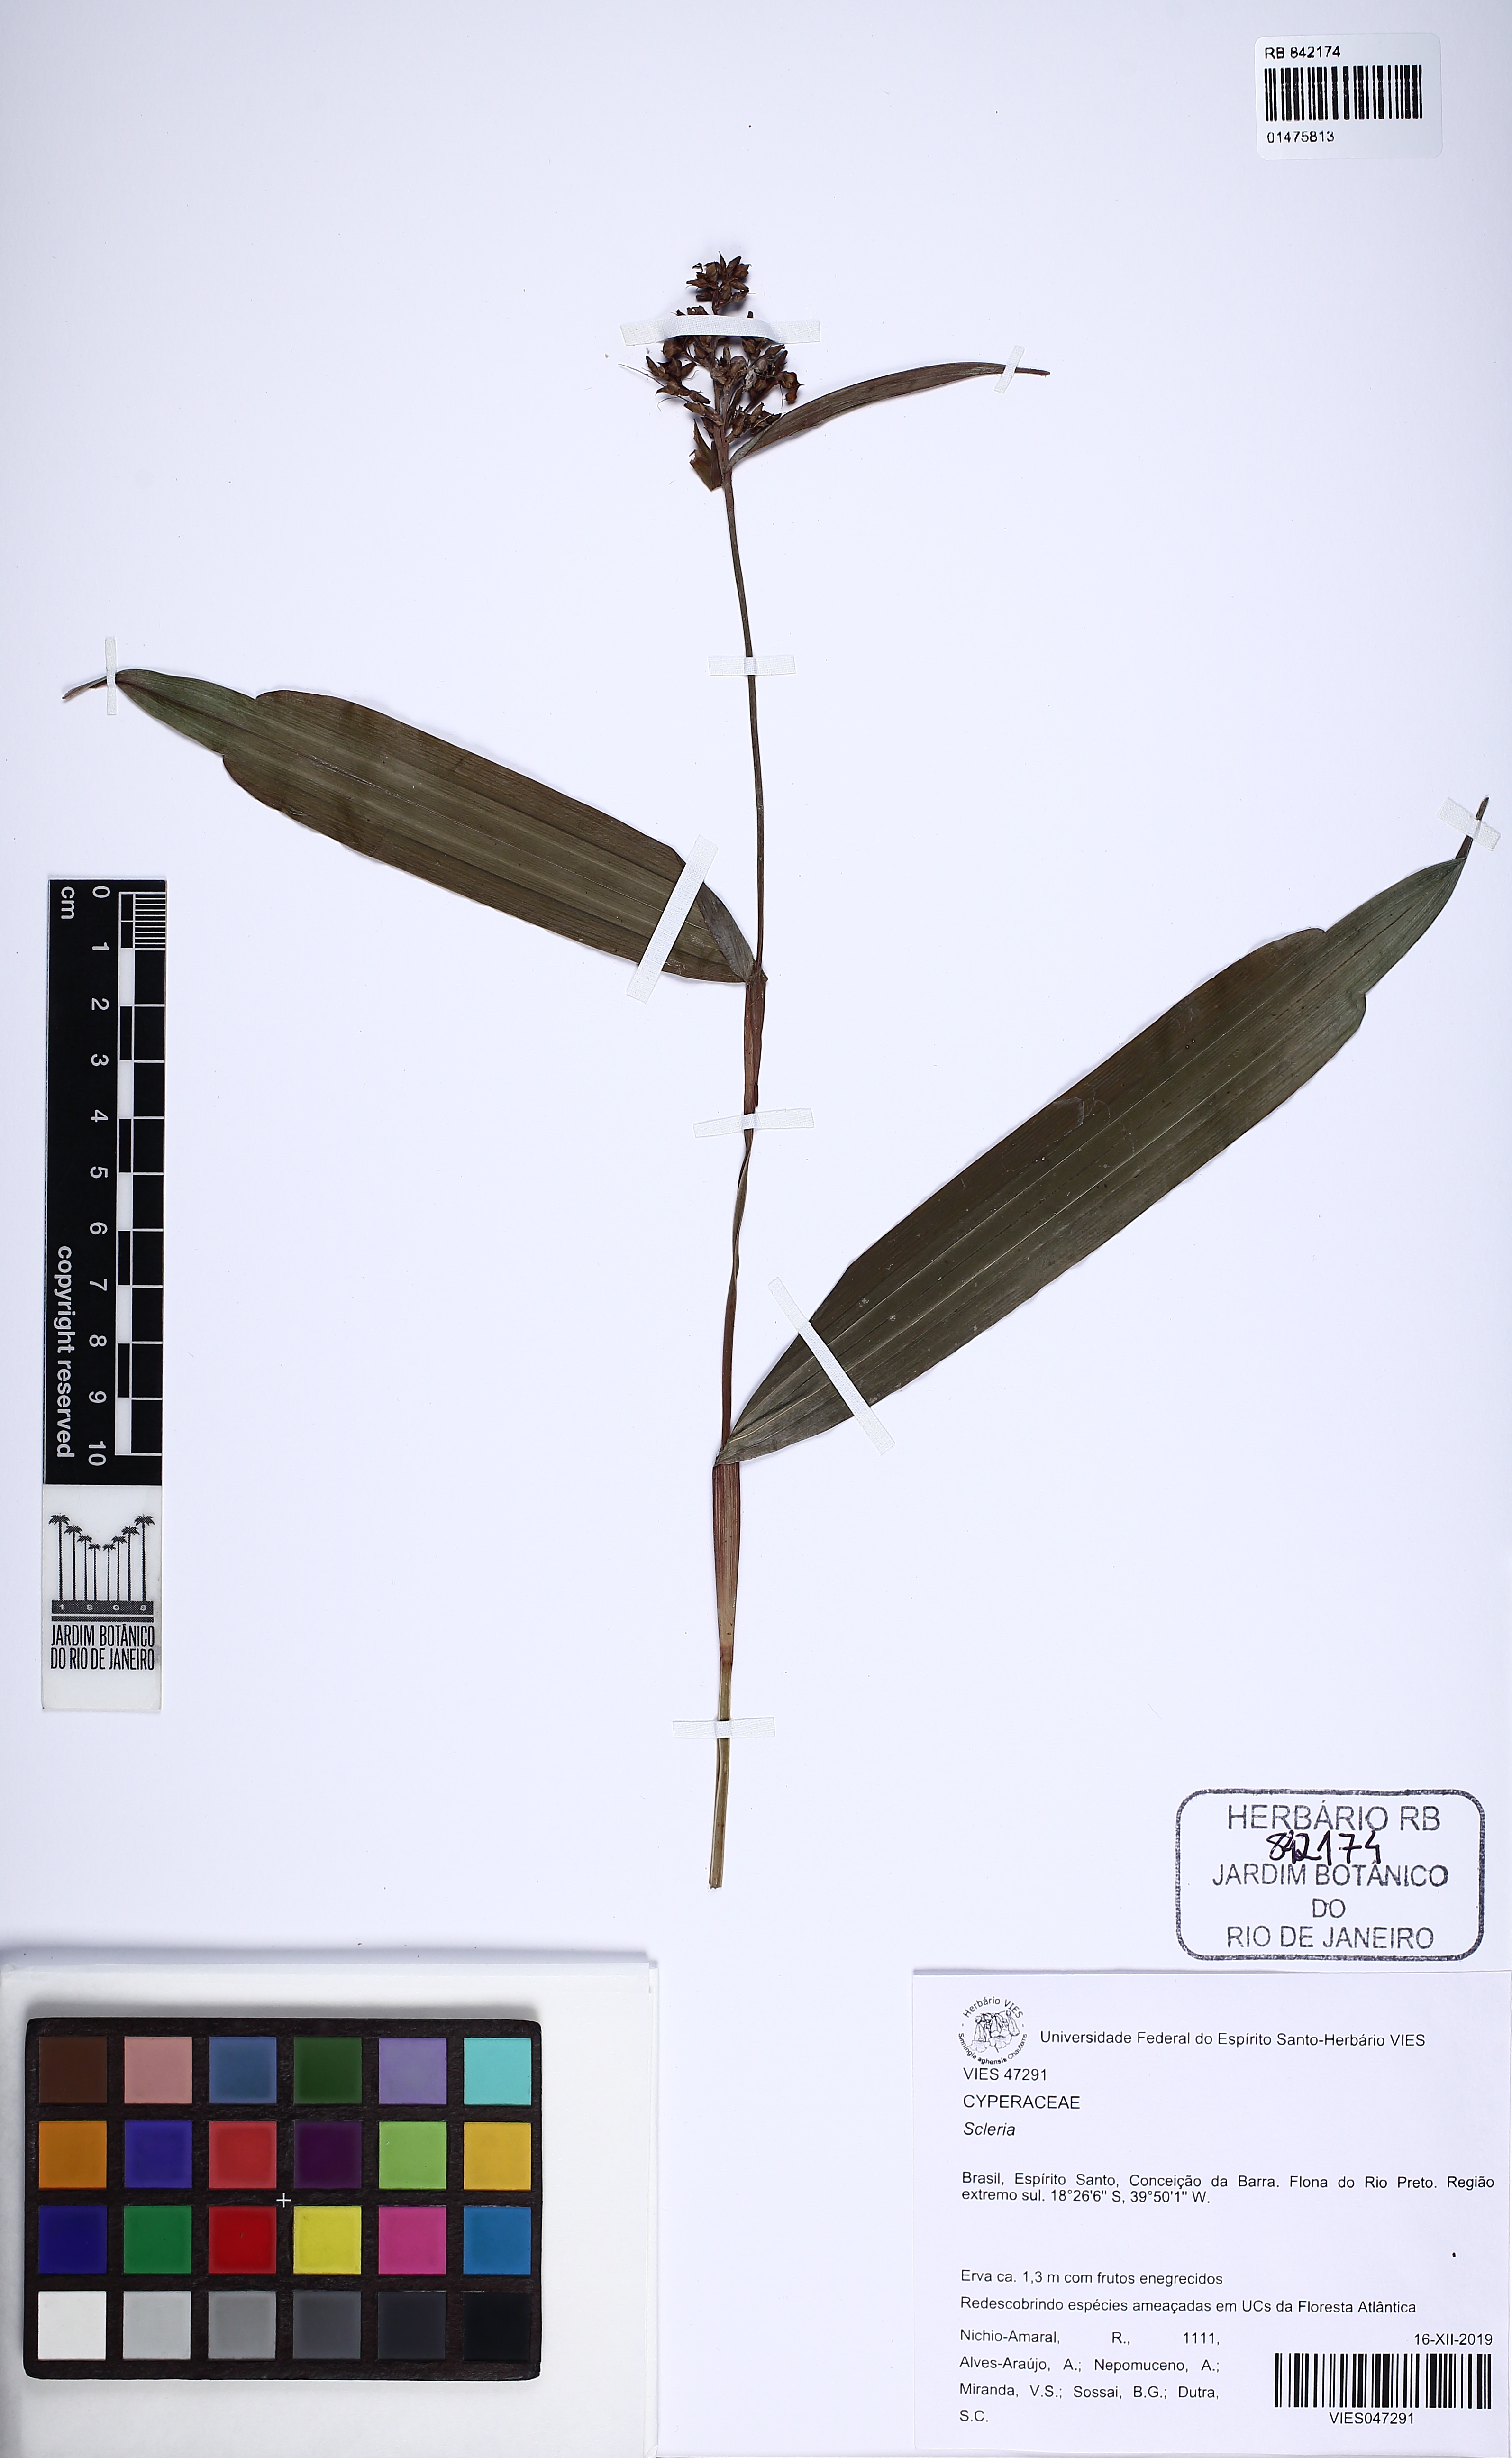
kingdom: Plantae
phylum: Tracheophyta
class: Liliopsida
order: Poales
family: Cyperaceae
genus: Scleria
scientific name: Scleria
